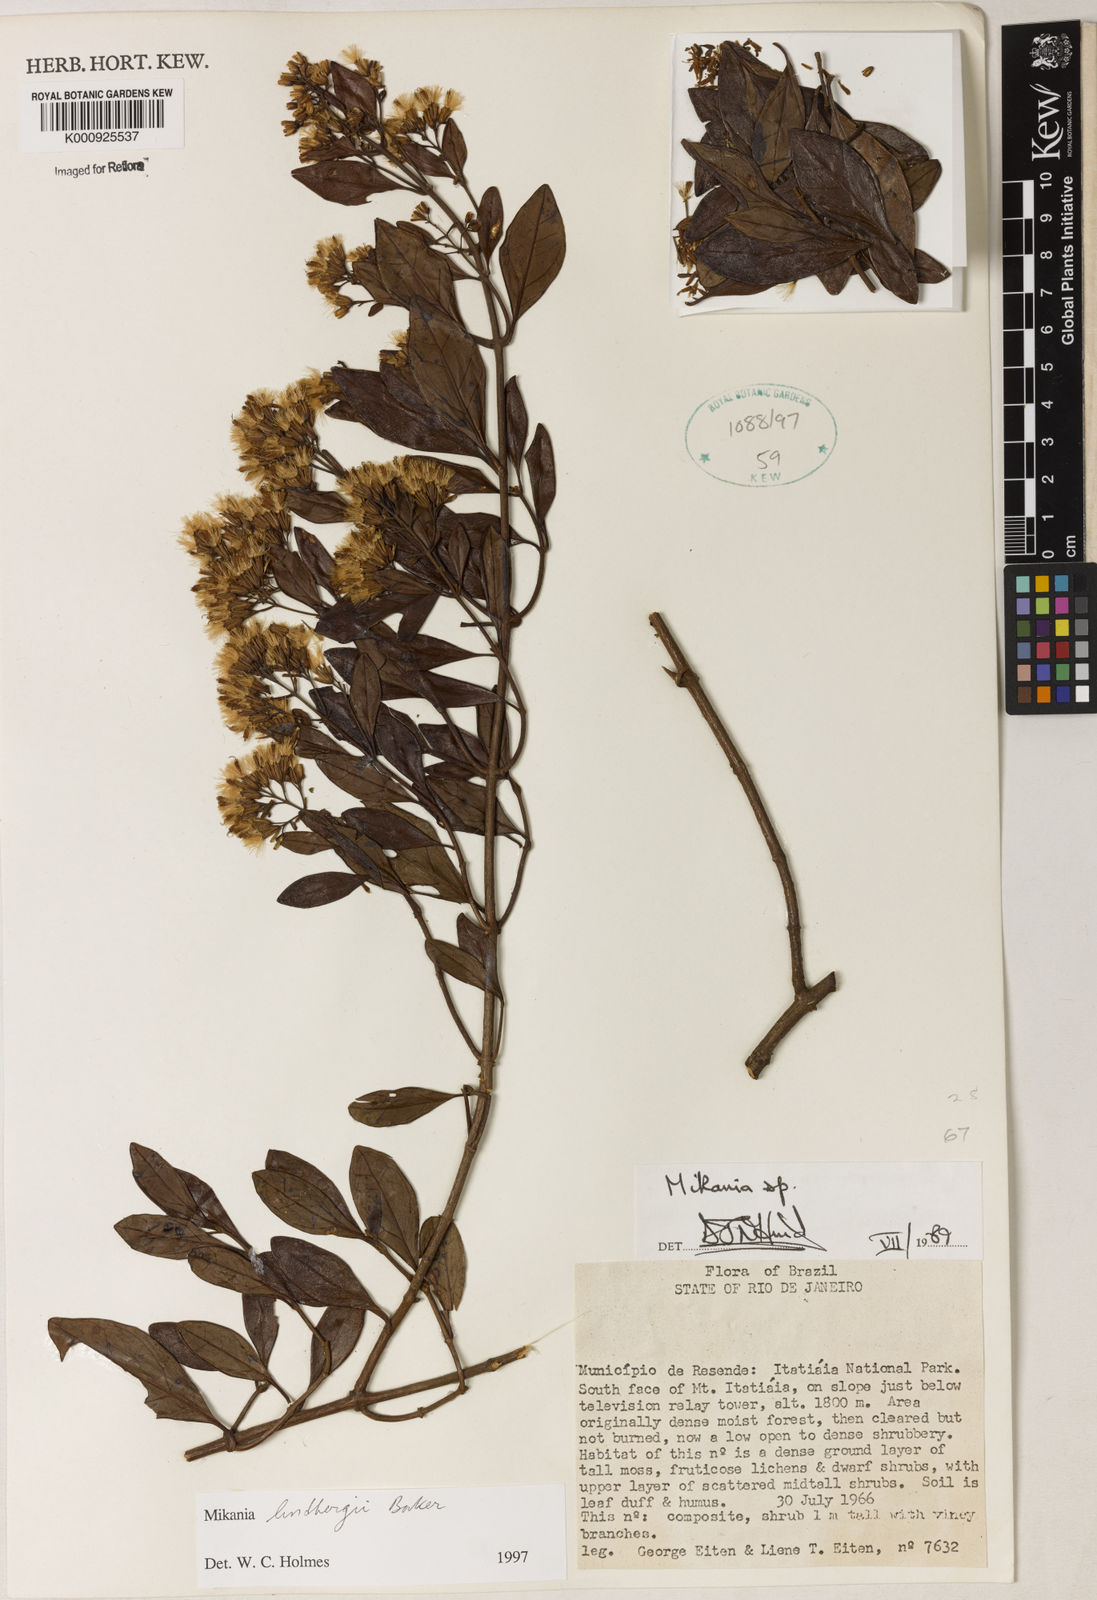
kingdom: Plantae
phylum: Tracheophyta
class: Magnoliopsida
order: Asterales
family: Asteraceae
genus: Mikania
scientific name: Mikania lindbergii
